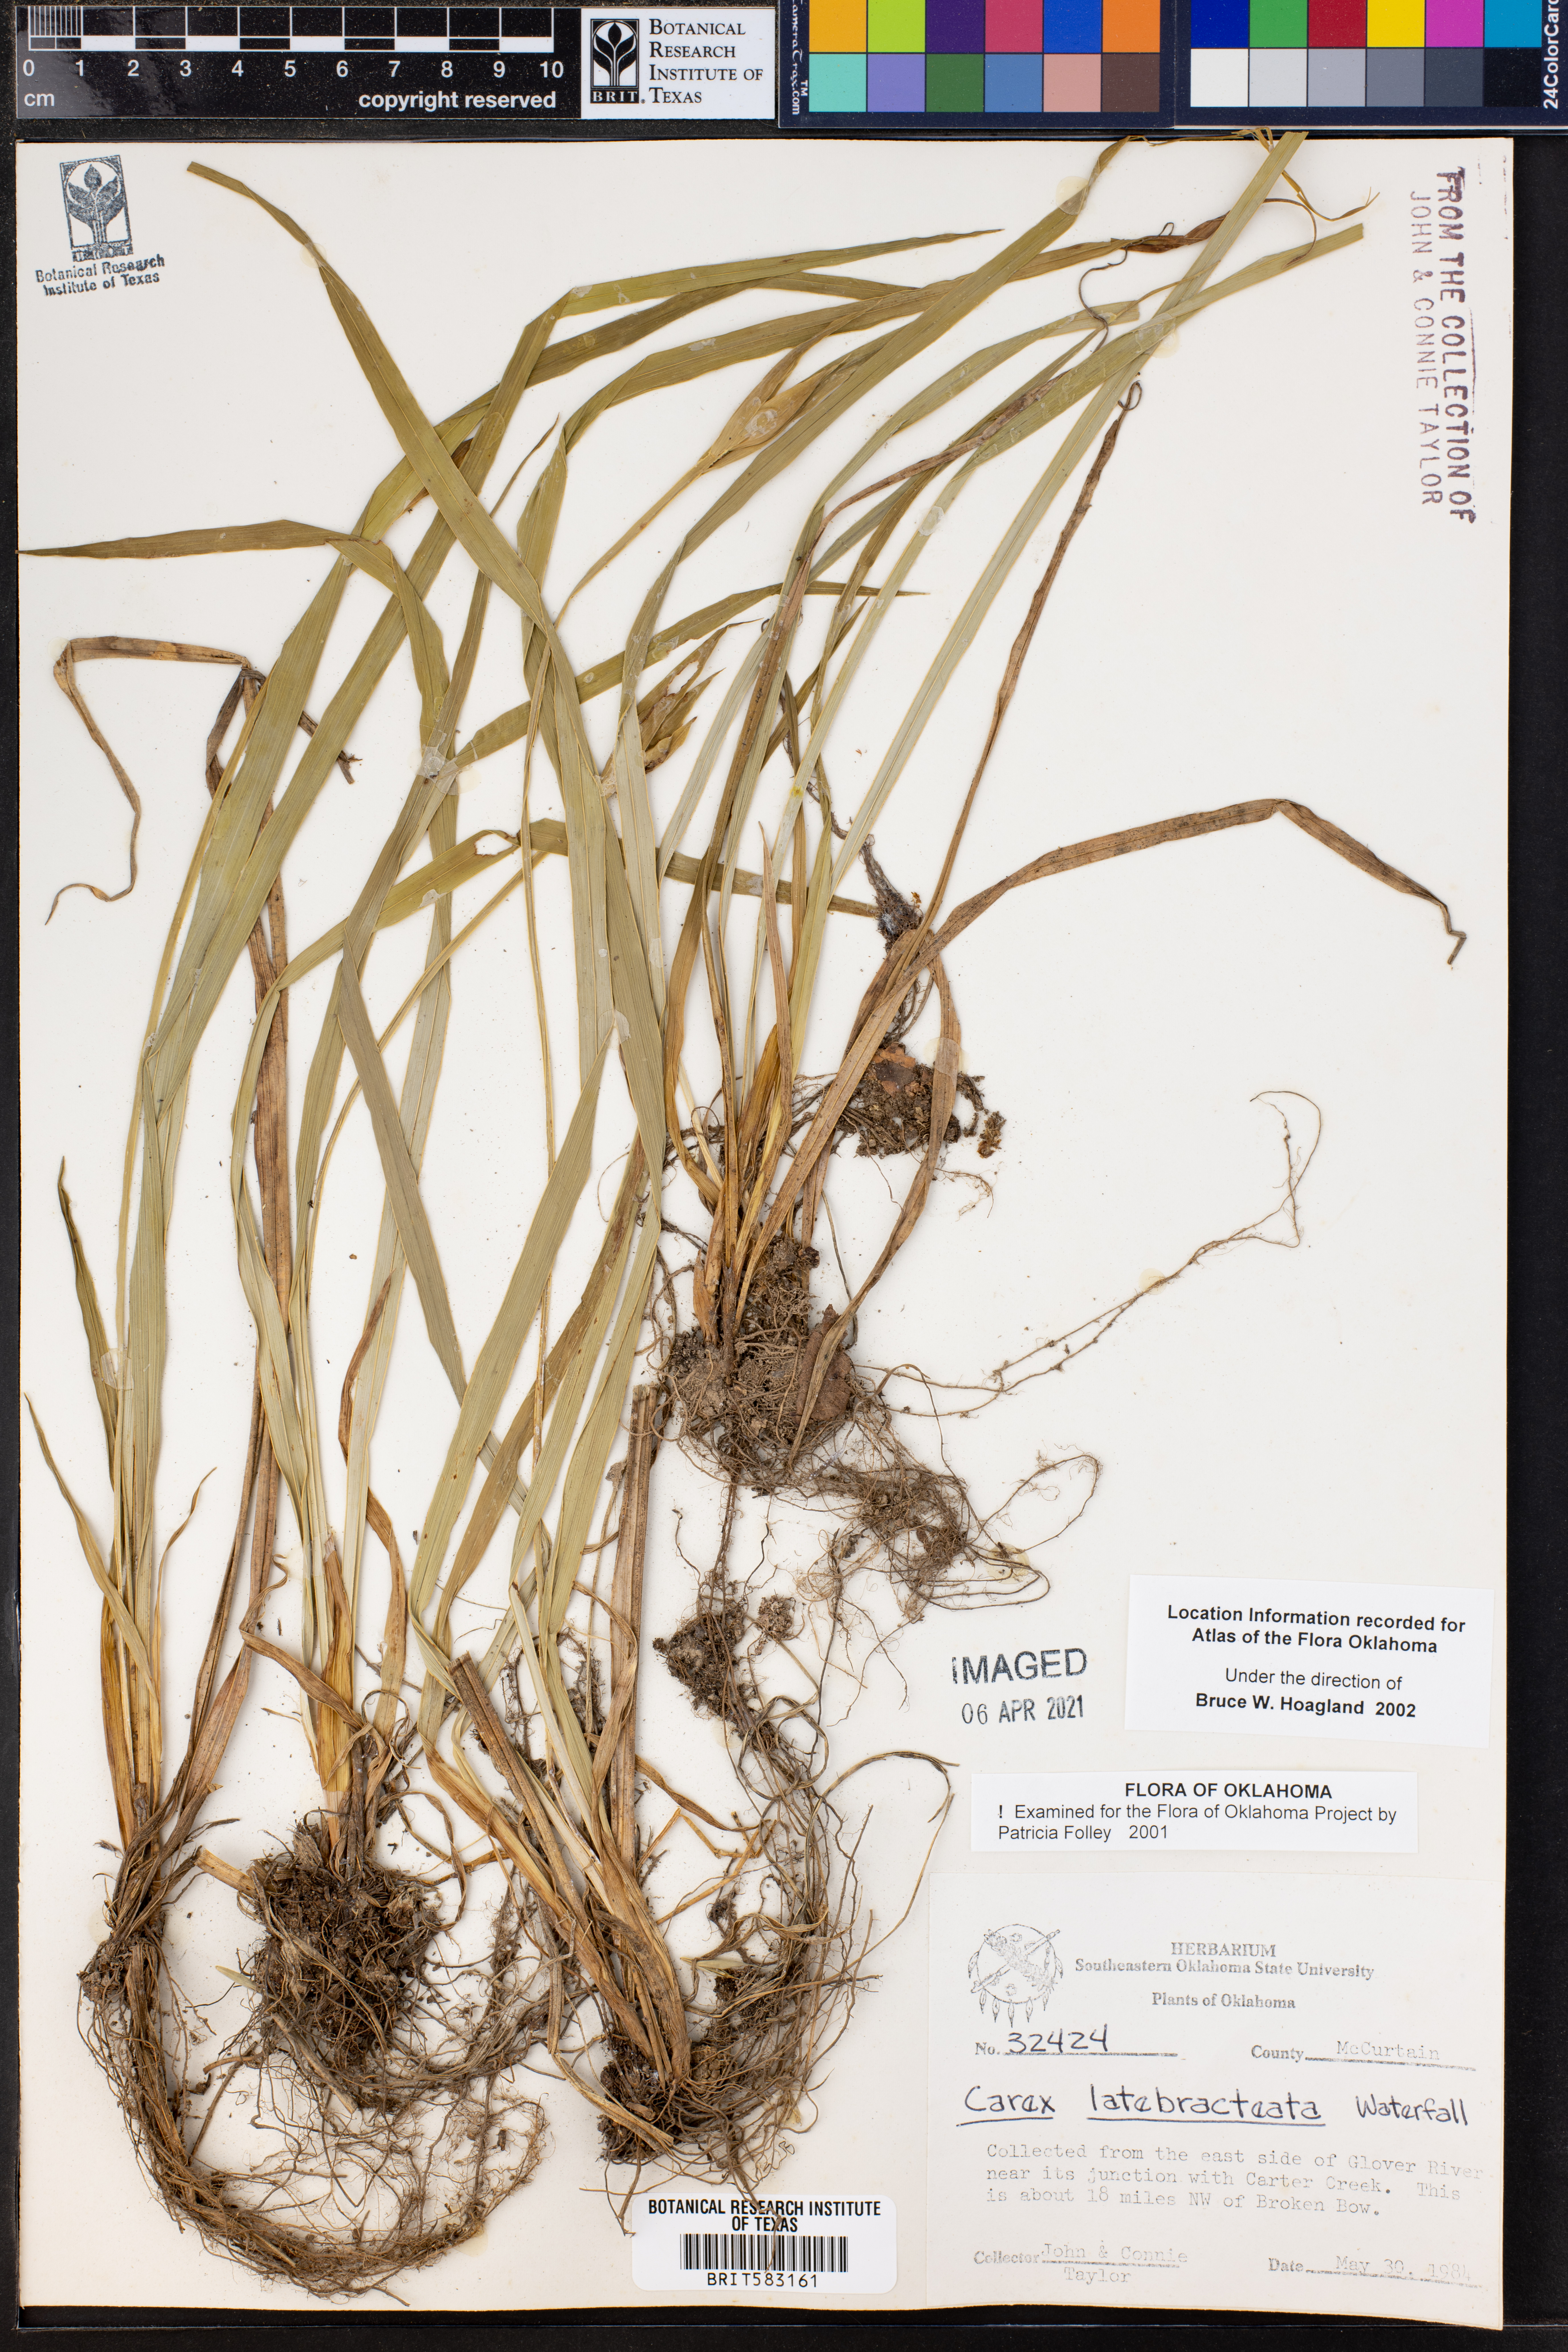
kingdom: Plantae
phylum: Tracheophyta
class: Liliopsida
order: Poales
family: Cyperaceae
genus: Carex
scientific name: Carex latebracteata
